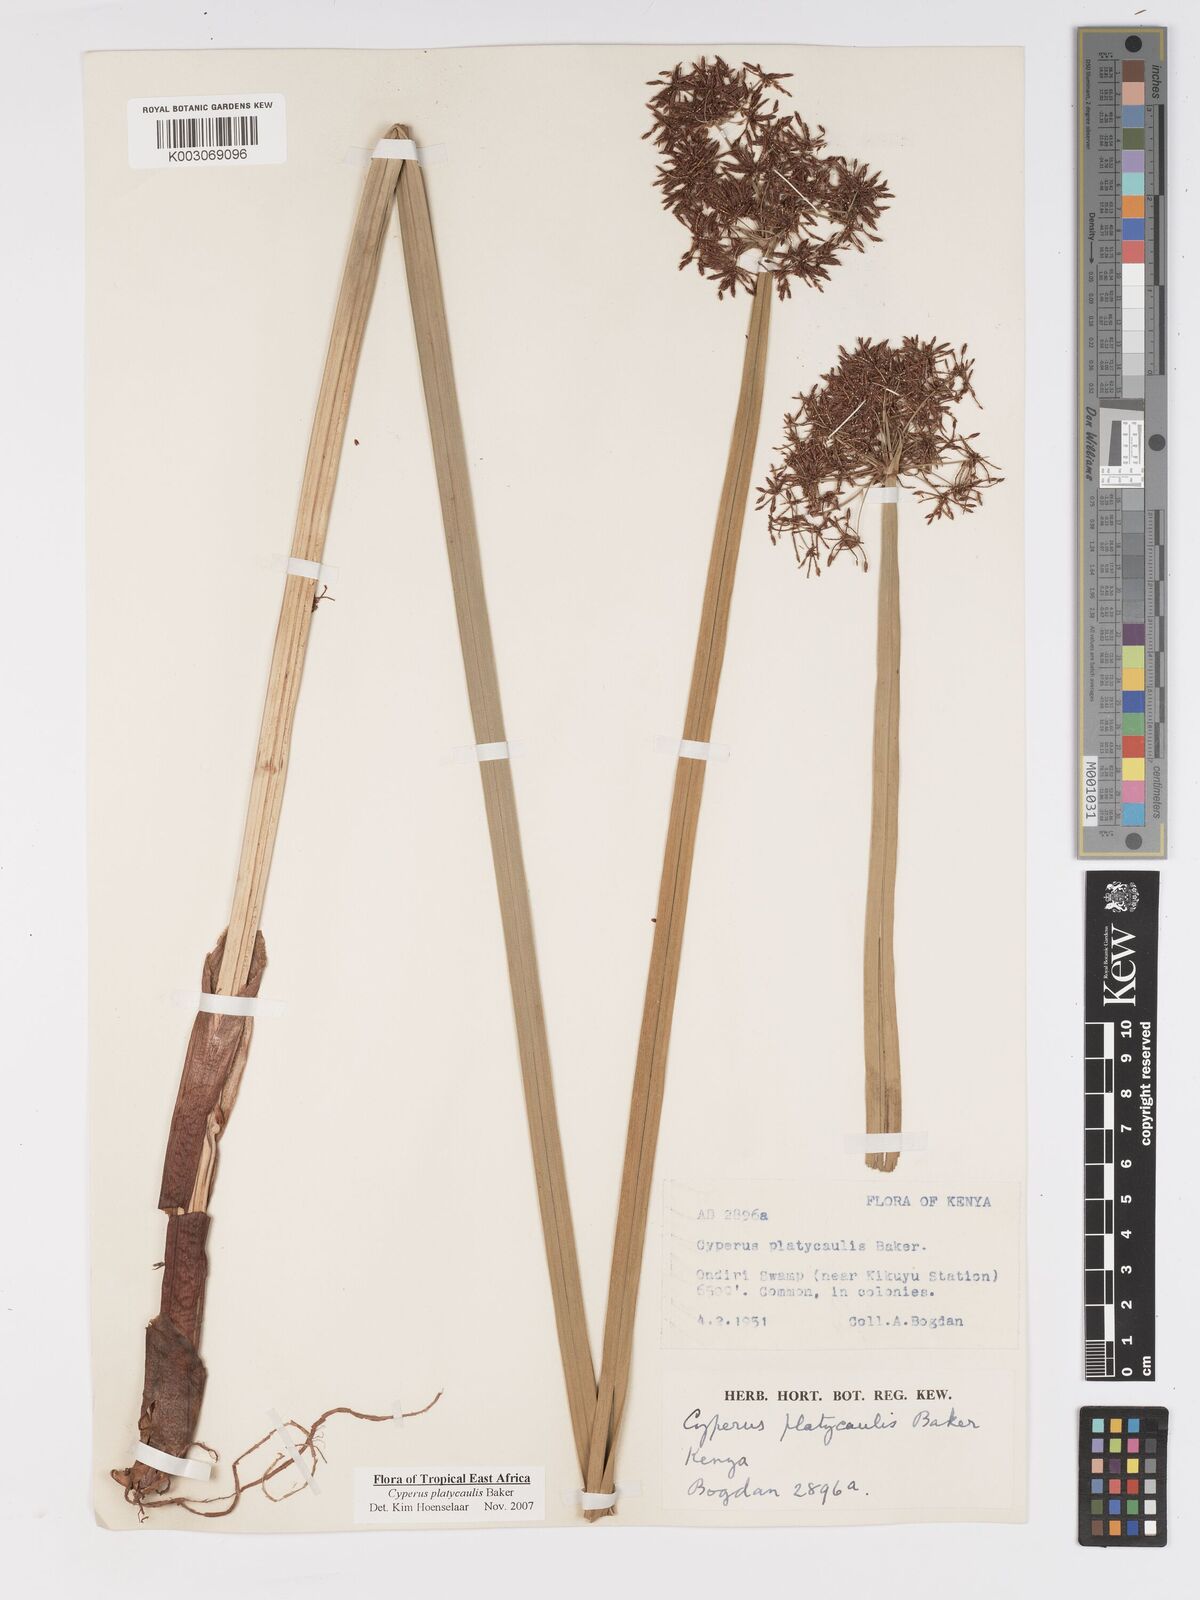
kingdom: Plantae
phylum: Tracheophyta
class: Liliopsida
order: Poales
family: Cyperaceae
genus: Cyperus
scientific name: Cyperus platycaulis
